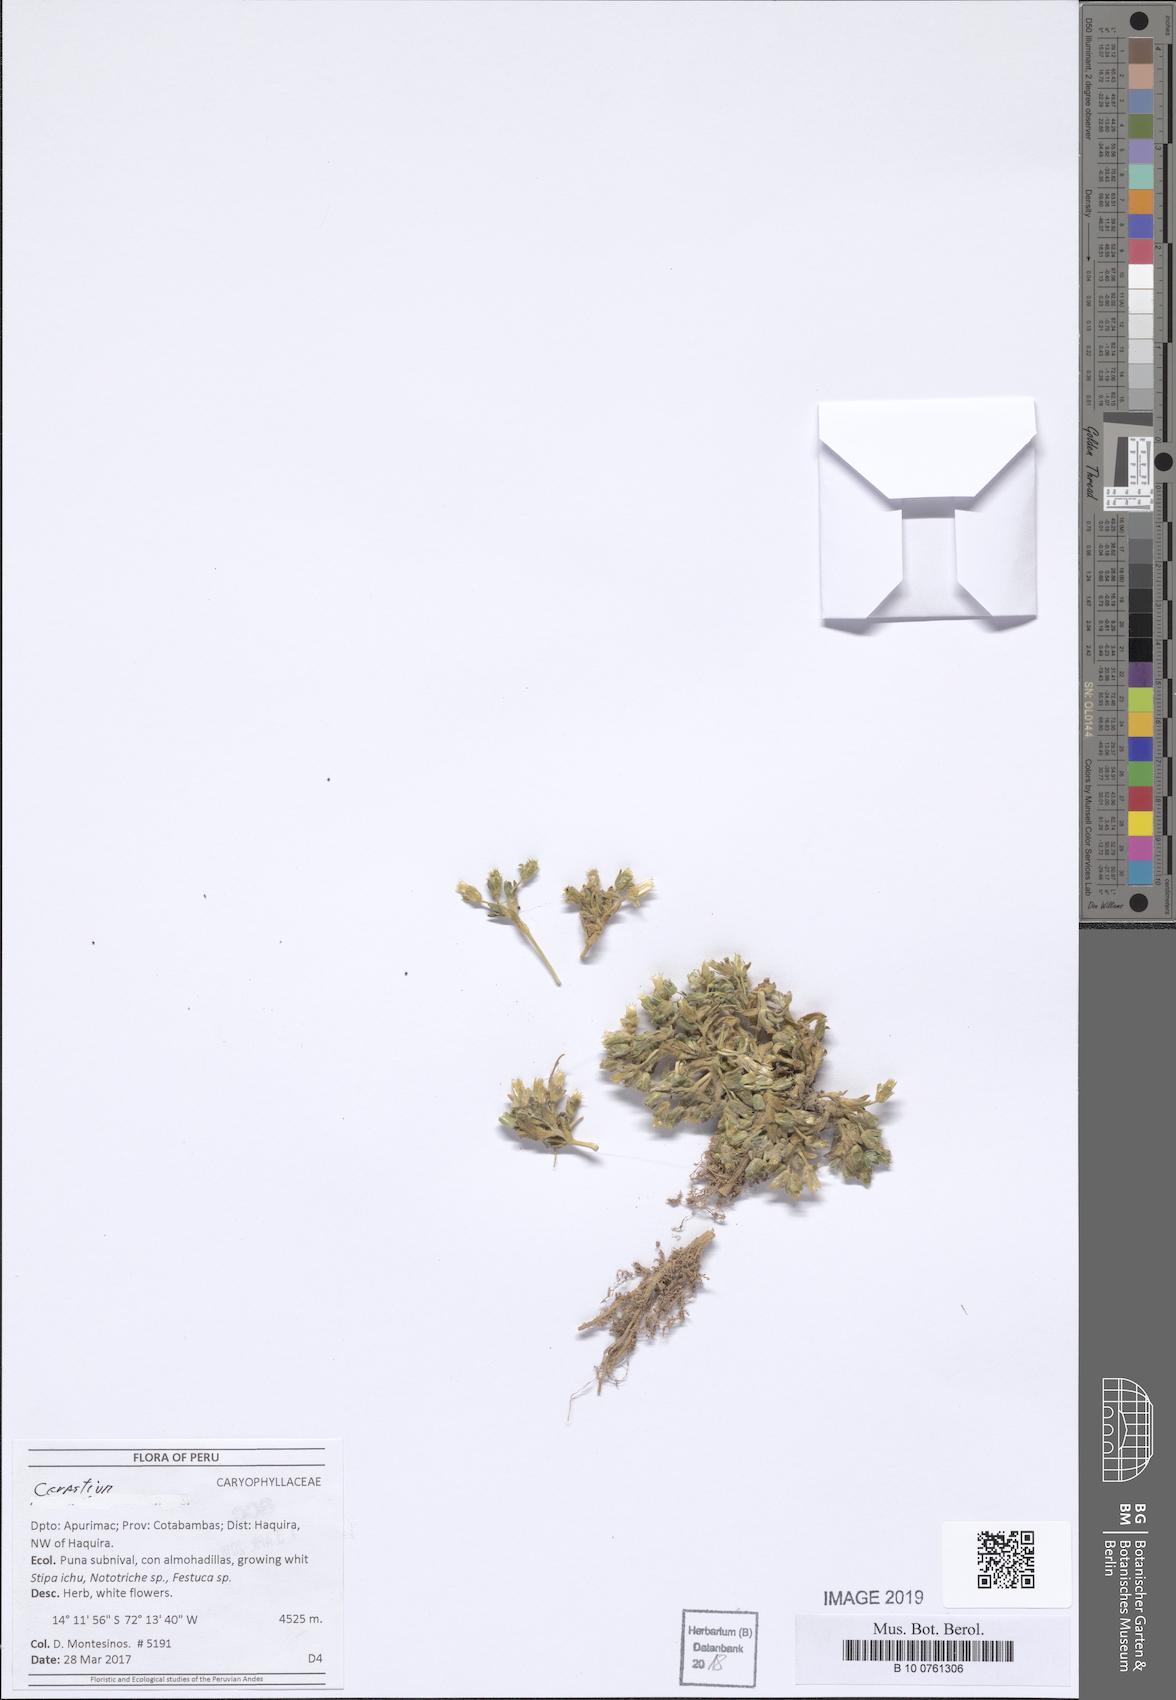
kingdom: Plantae
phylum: Tracheophyta
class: Magnoliopsida
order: Caryophyllales
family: Caryophyllaceae
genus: Cerastium
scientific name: Cerastium
